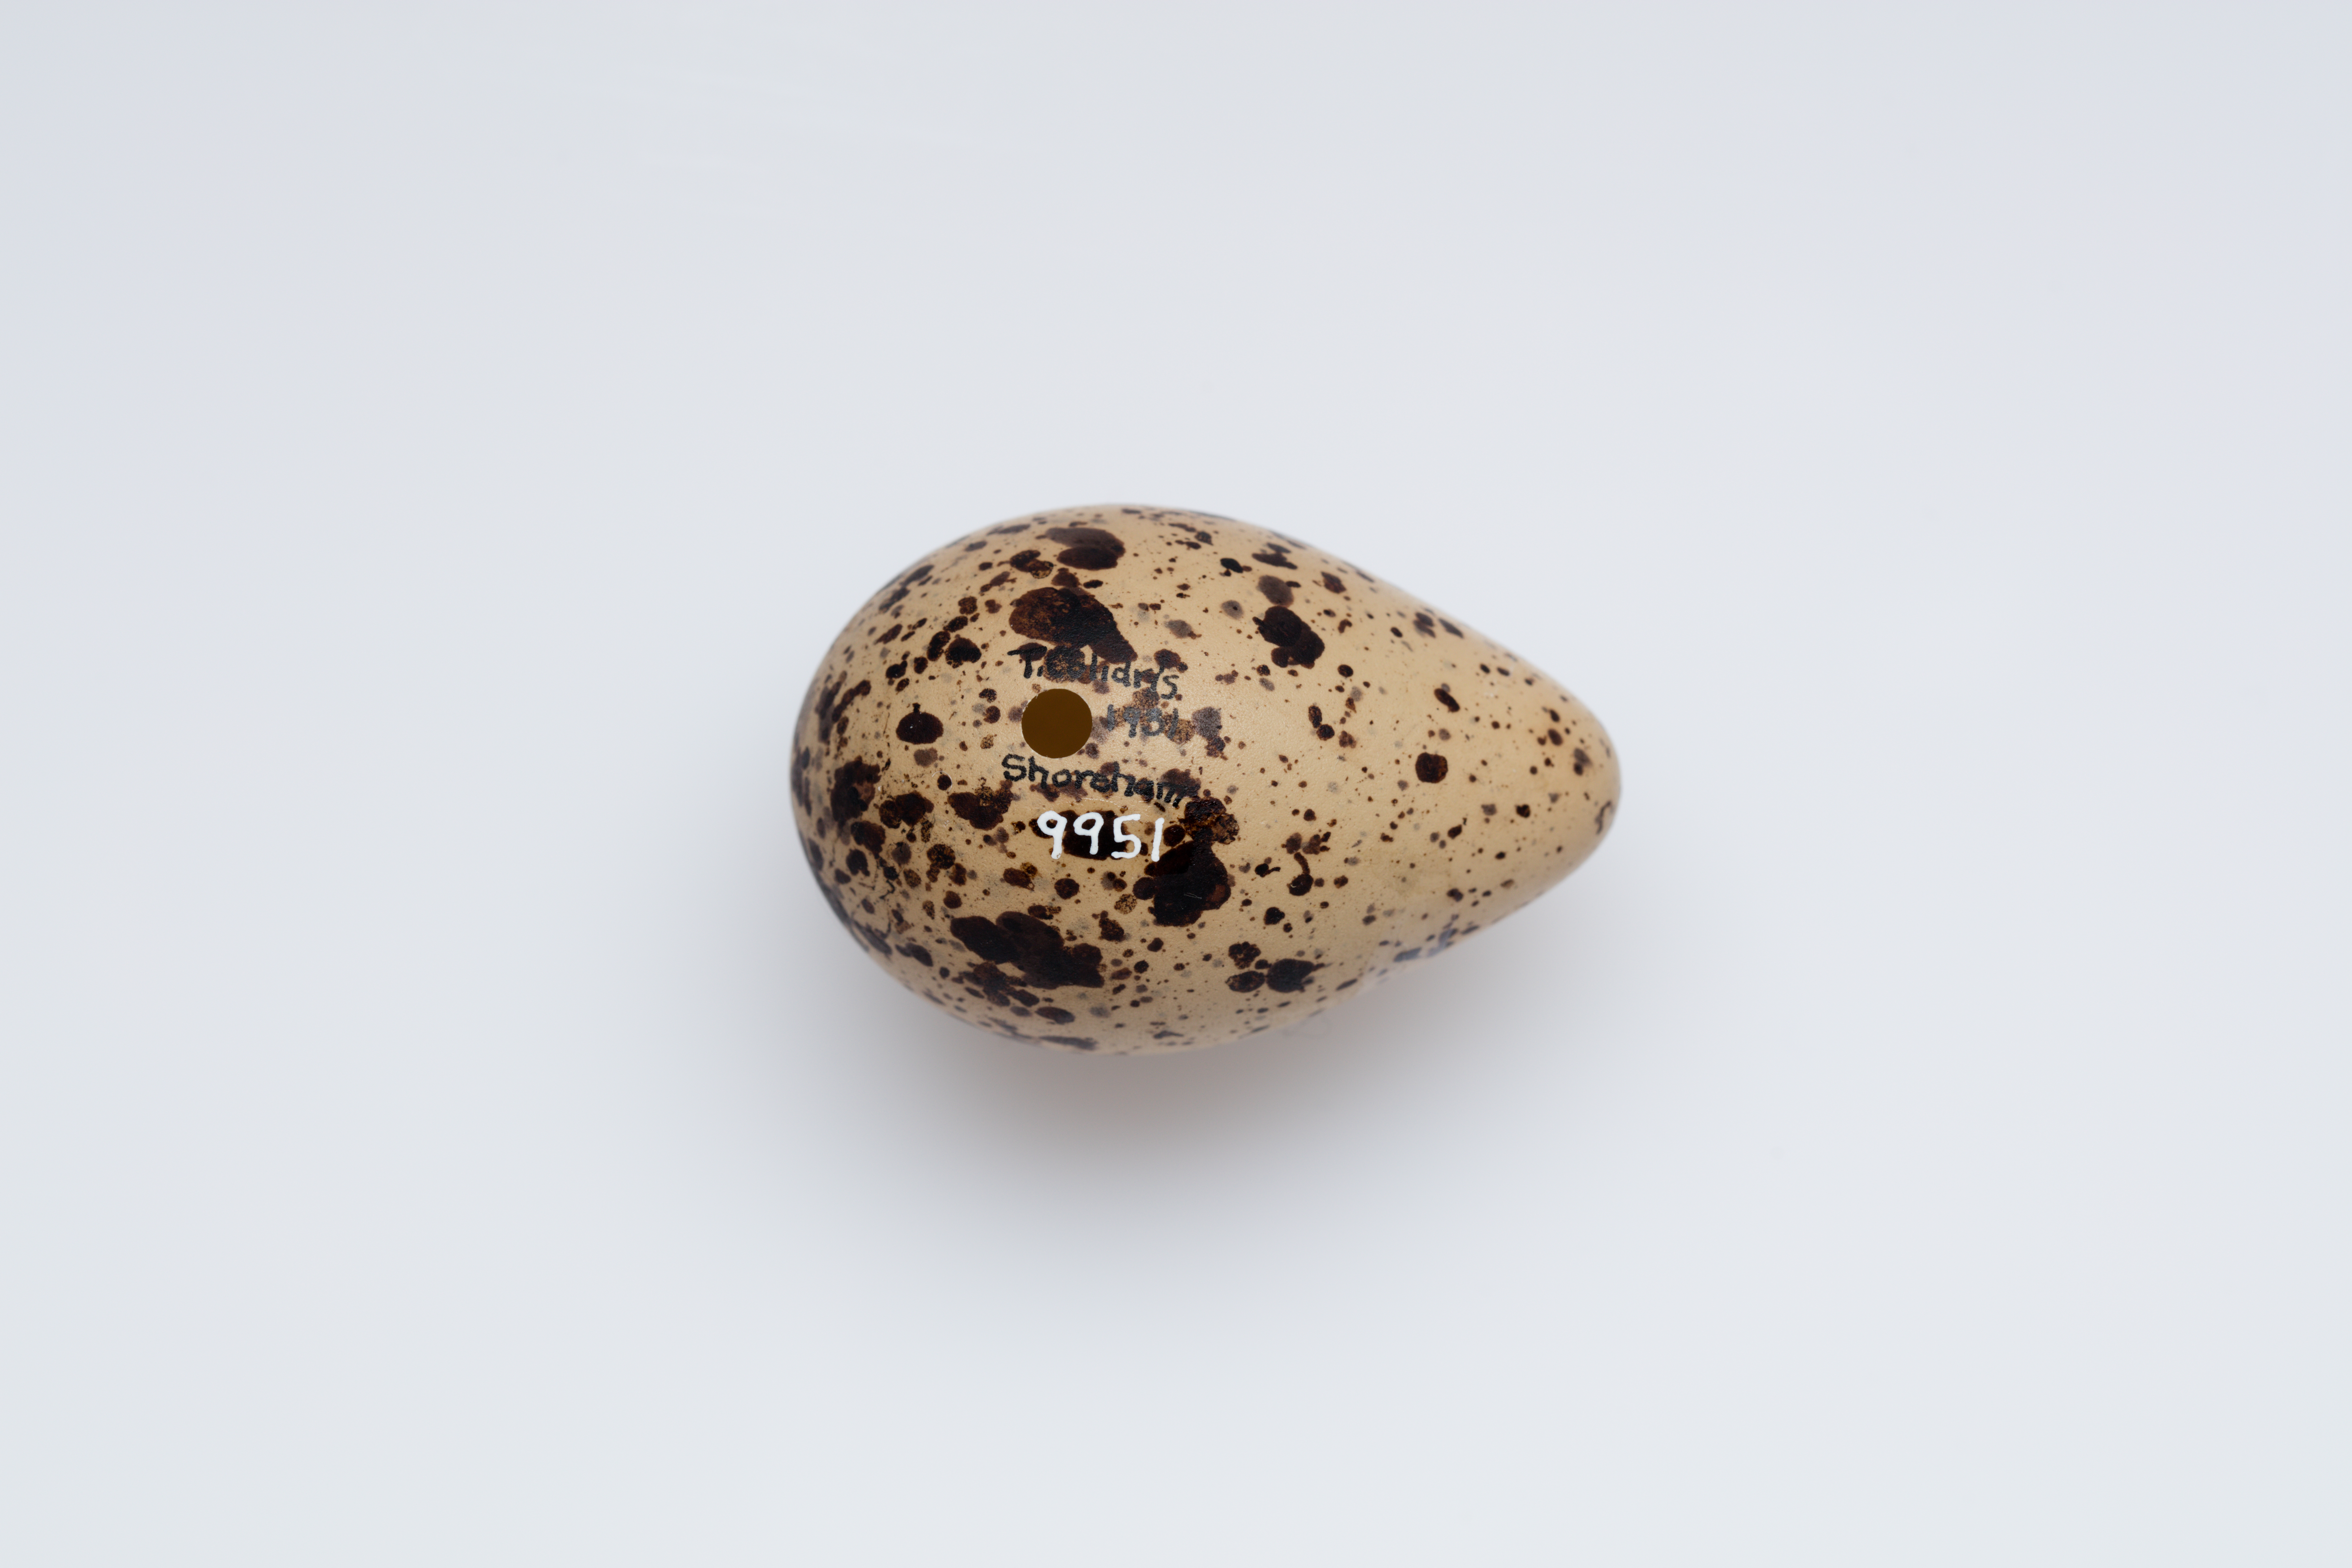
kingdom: Animalia
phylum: Chordata
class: Aves
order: Charadriiformes
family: Scolopacidae
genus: Tringa
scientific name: Tringa totanus
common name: Common redshank
